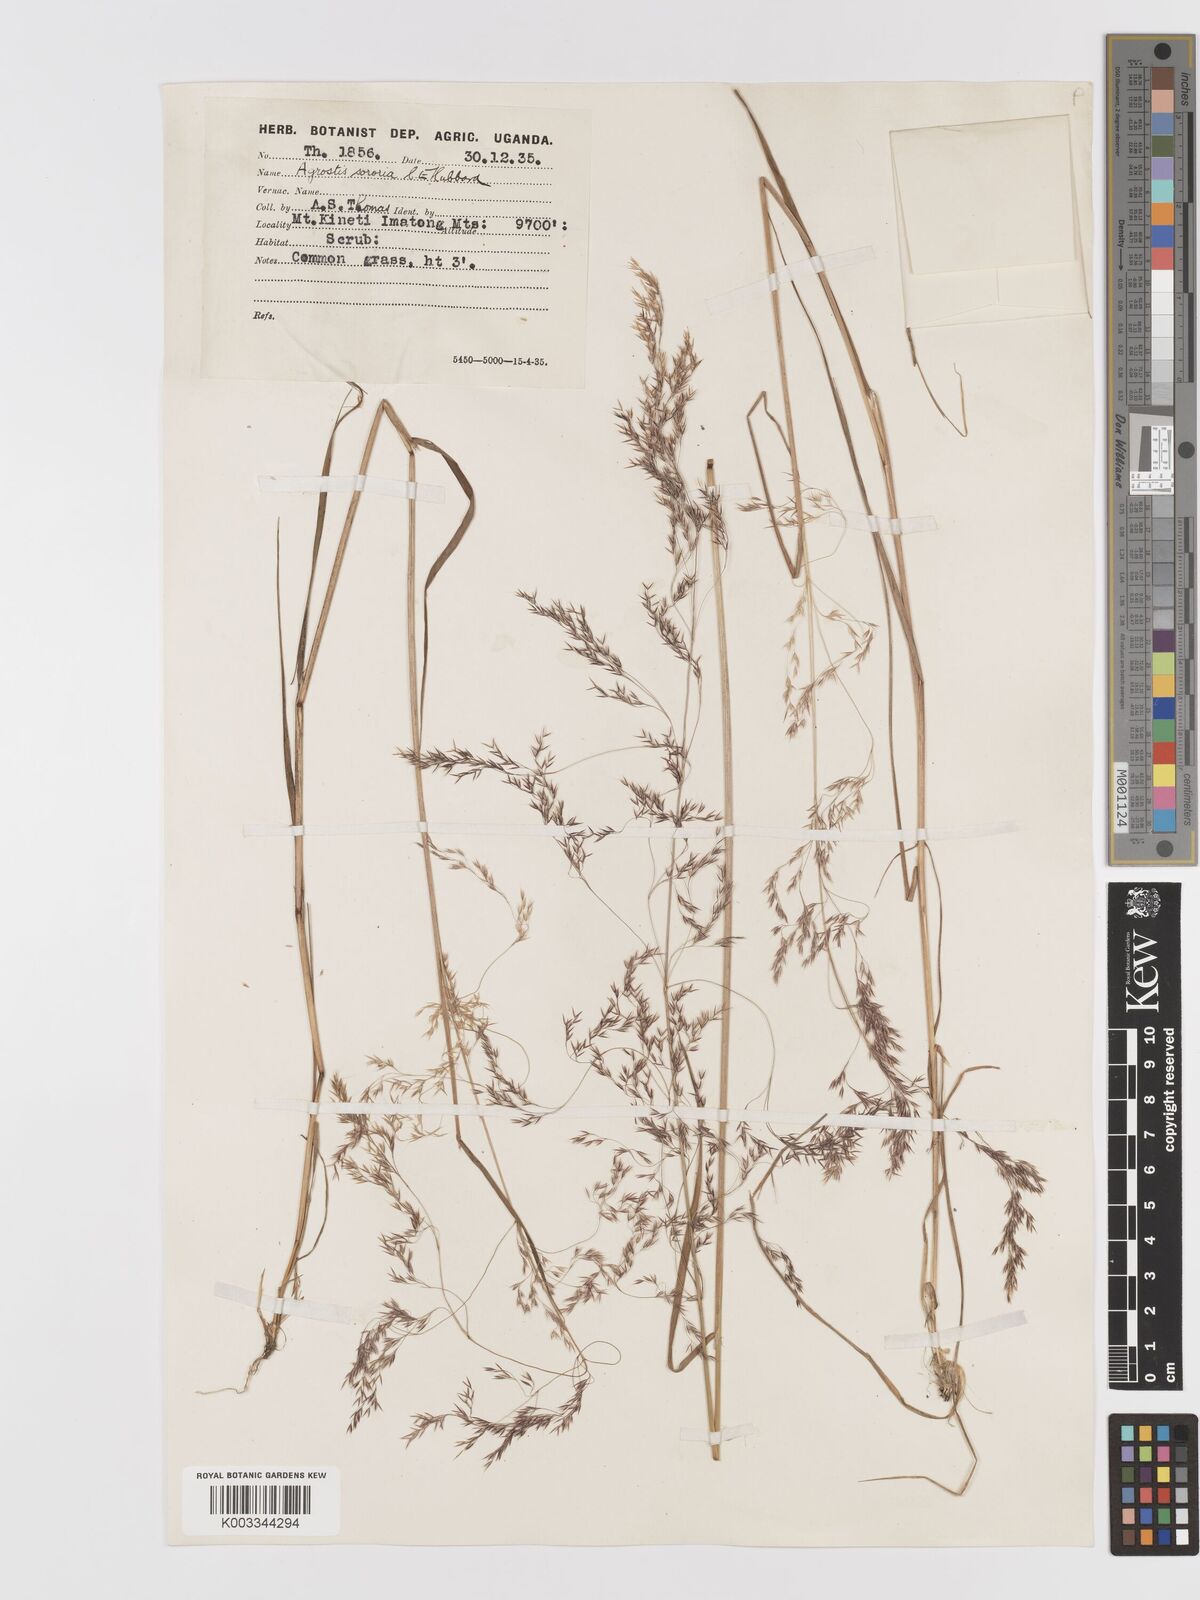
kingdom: Plantae
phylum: Tracheophyta
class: Liliopsida
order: Poales
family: Poaceae
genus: Agrostis
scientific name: Agrostis kilimandscharica
